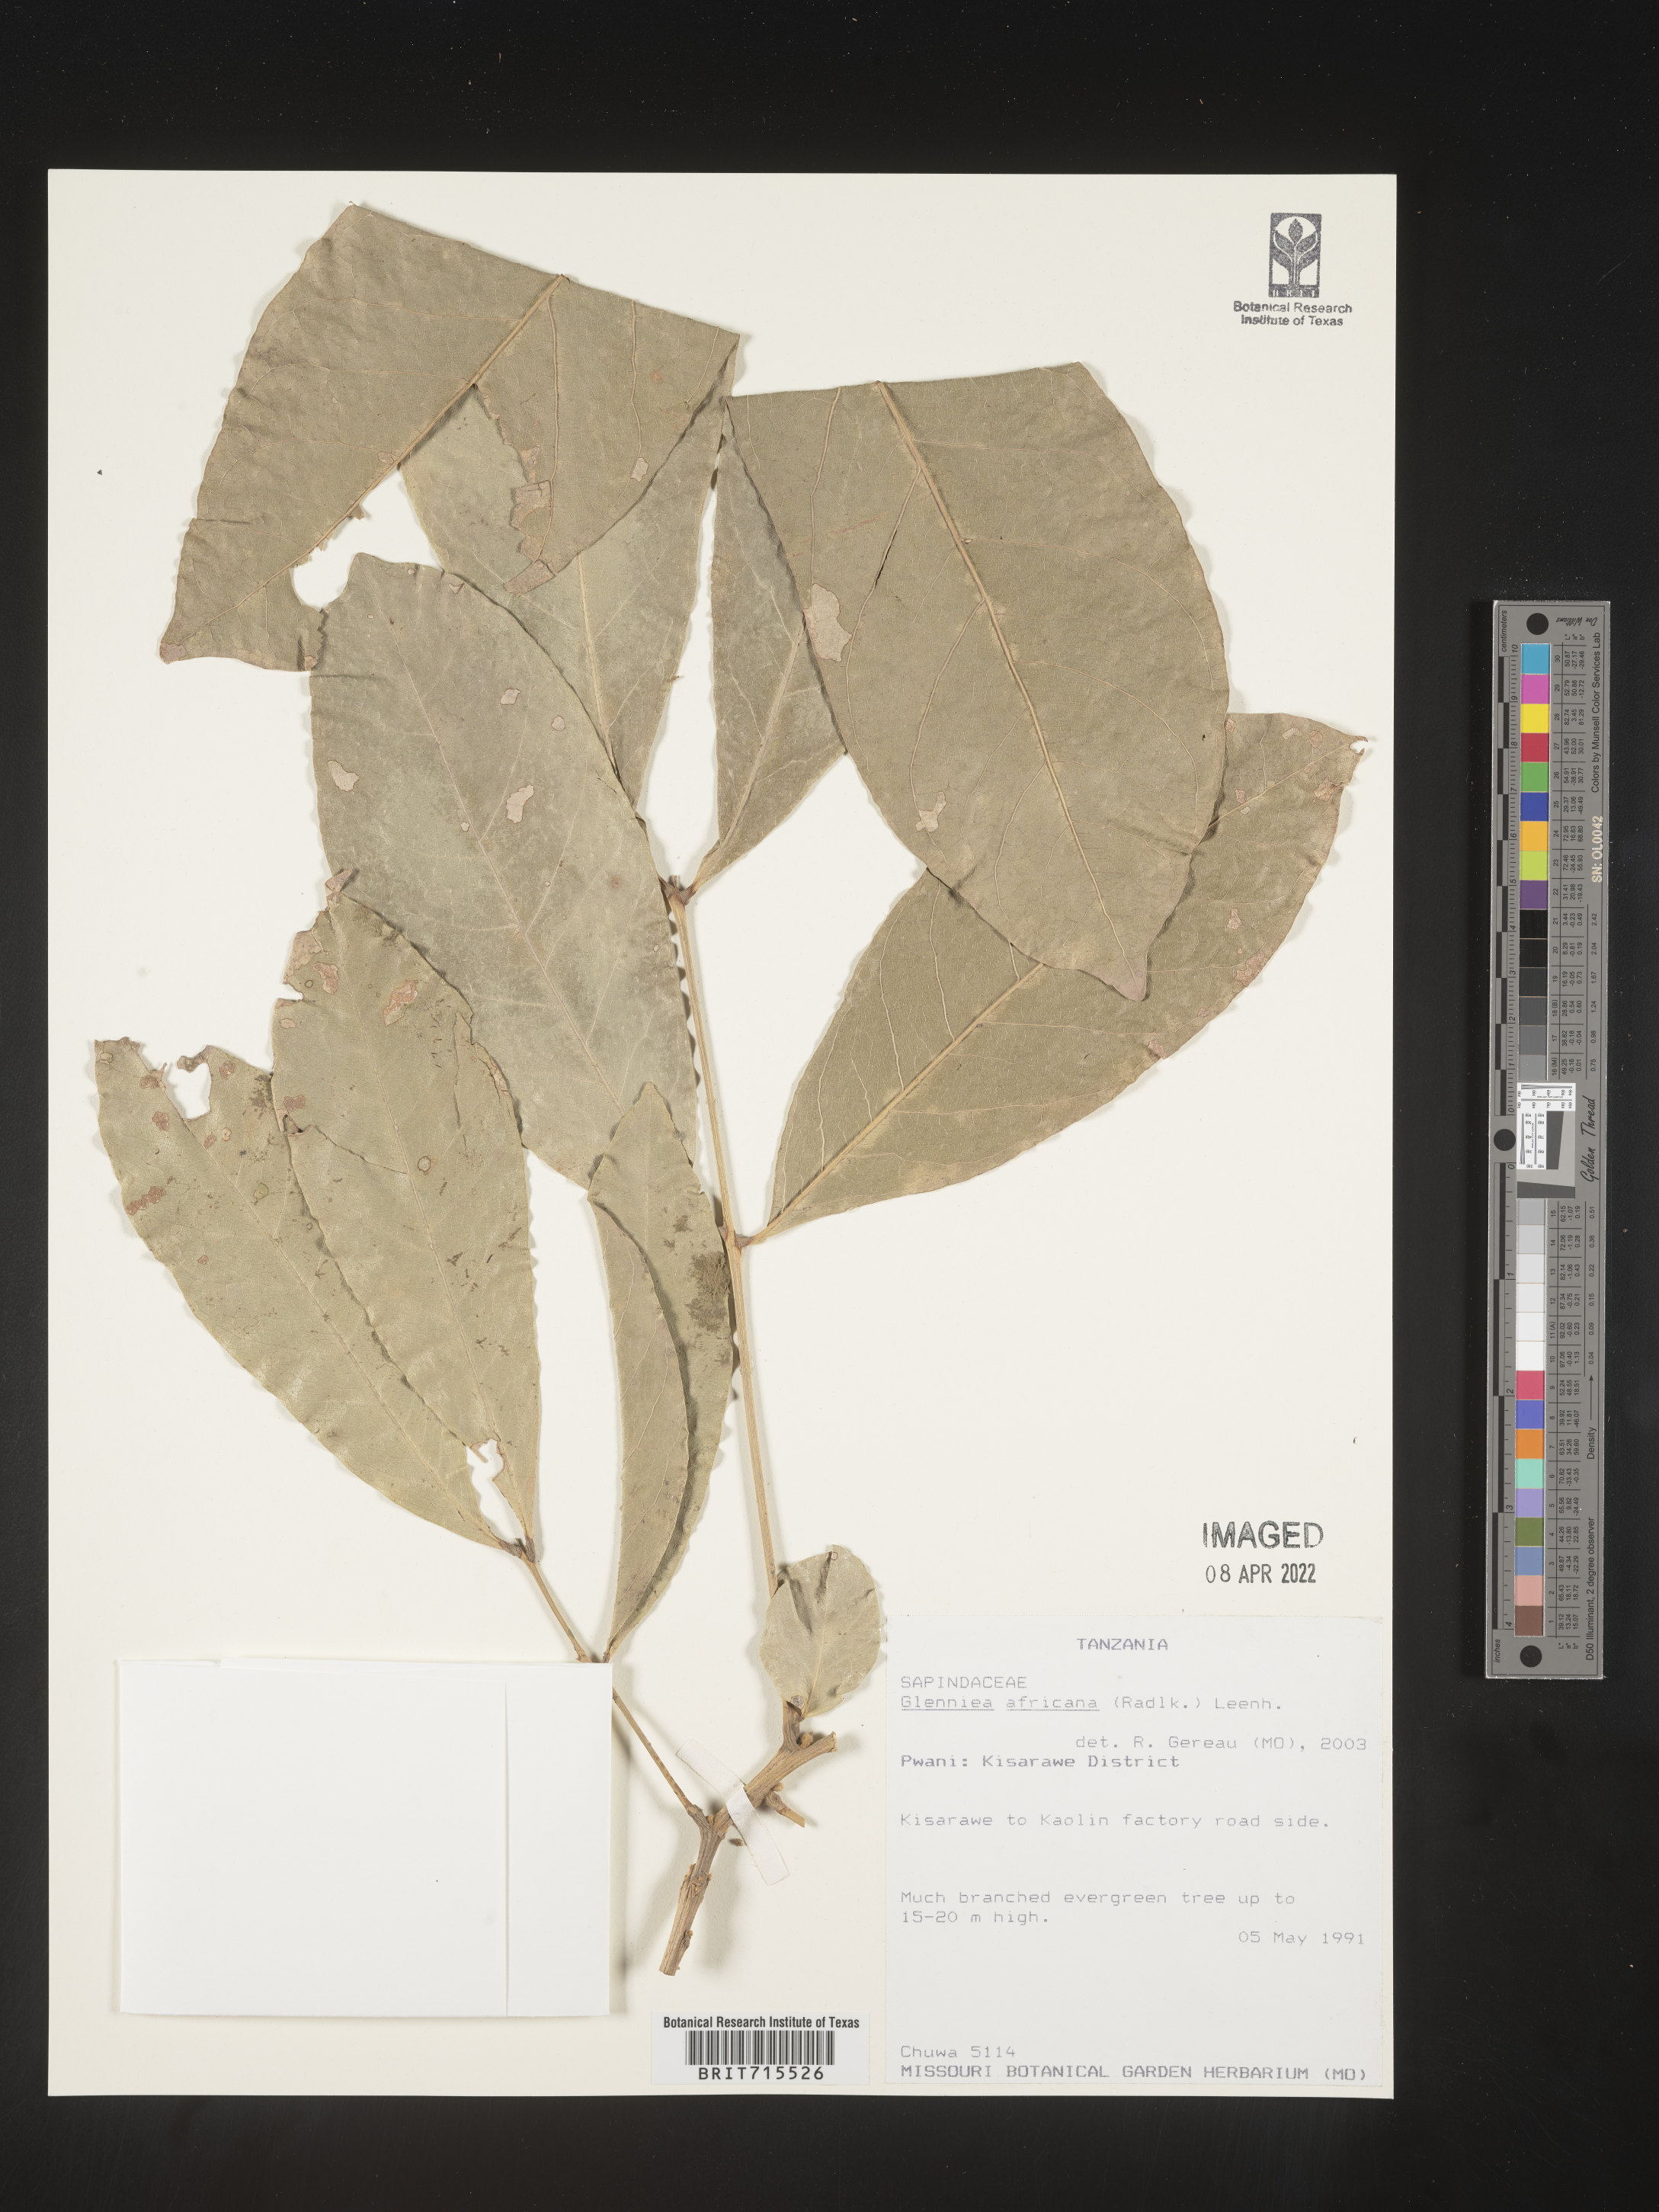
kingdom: Plantae
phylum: Tracheophyta
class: Magnoliopsida
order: Sapindales
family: Sapindaceae
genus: Glenniea
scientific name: Glenniea
